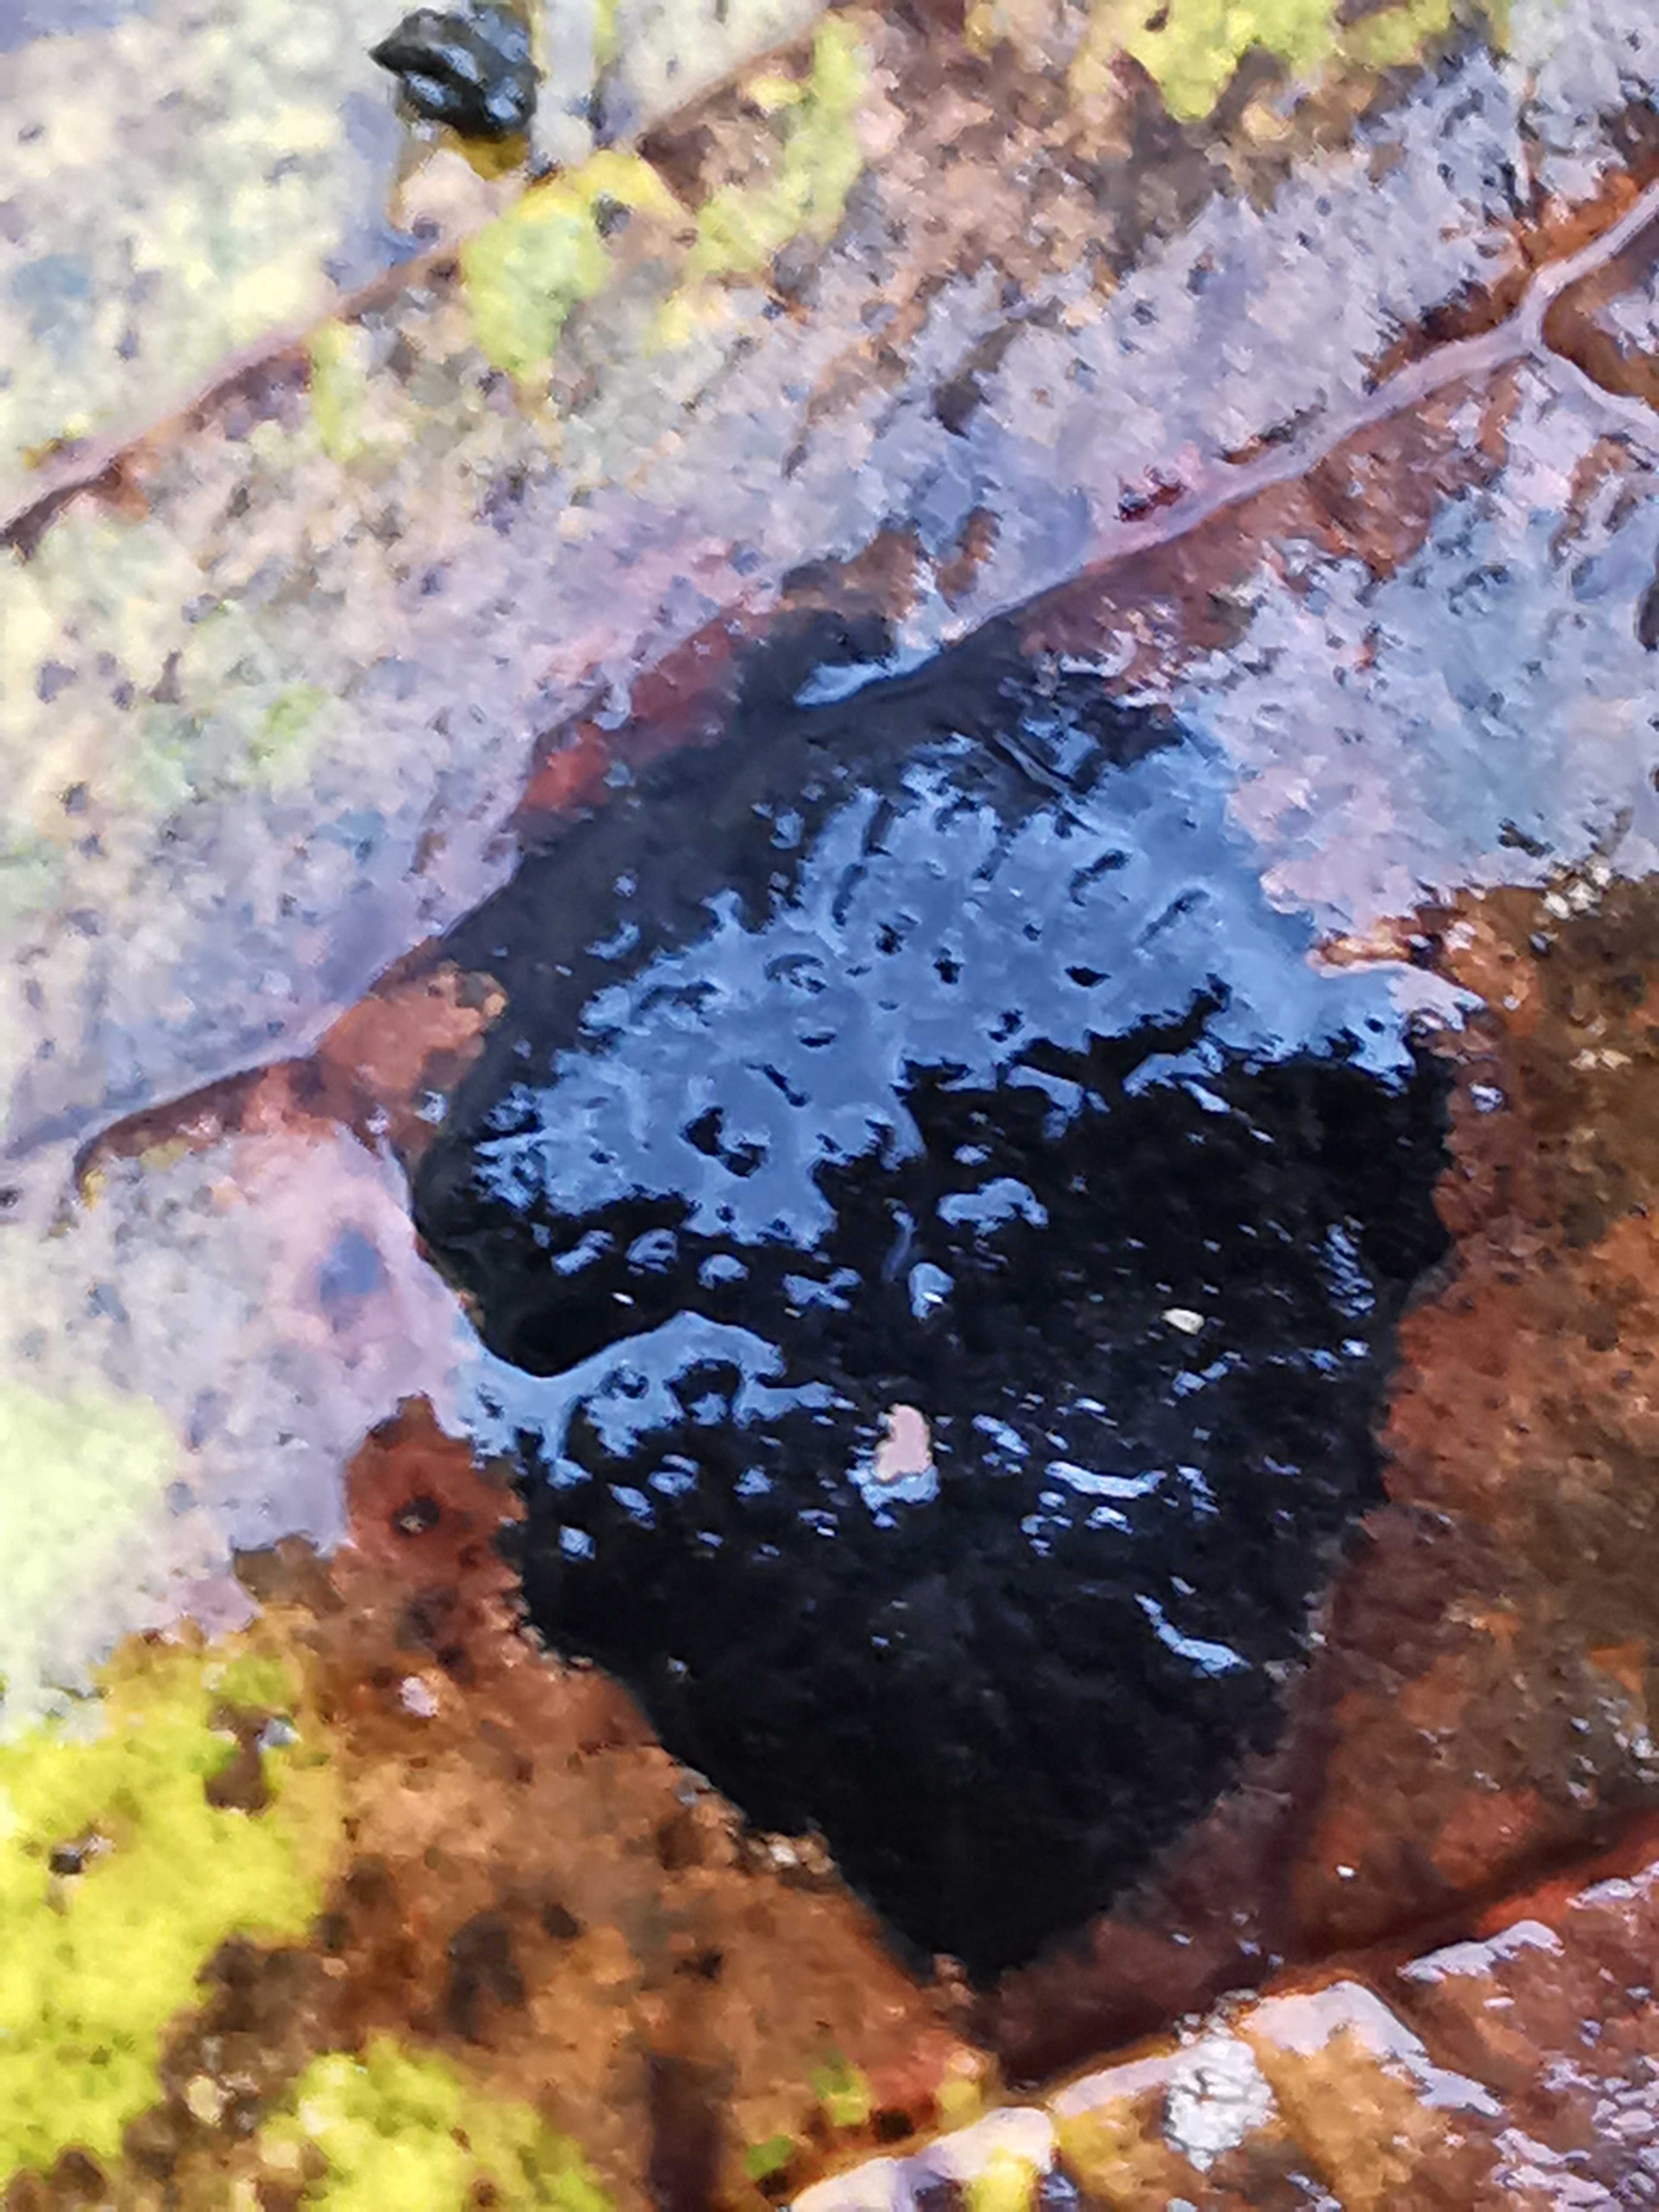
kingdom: Fungi
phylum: Ascomycota
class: Leotiomycetes
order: Rhytismatales
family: Rhytismataceae
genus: Rhytisma
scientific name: Rhytisma acerinum
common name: ahorn-rynkeplet
